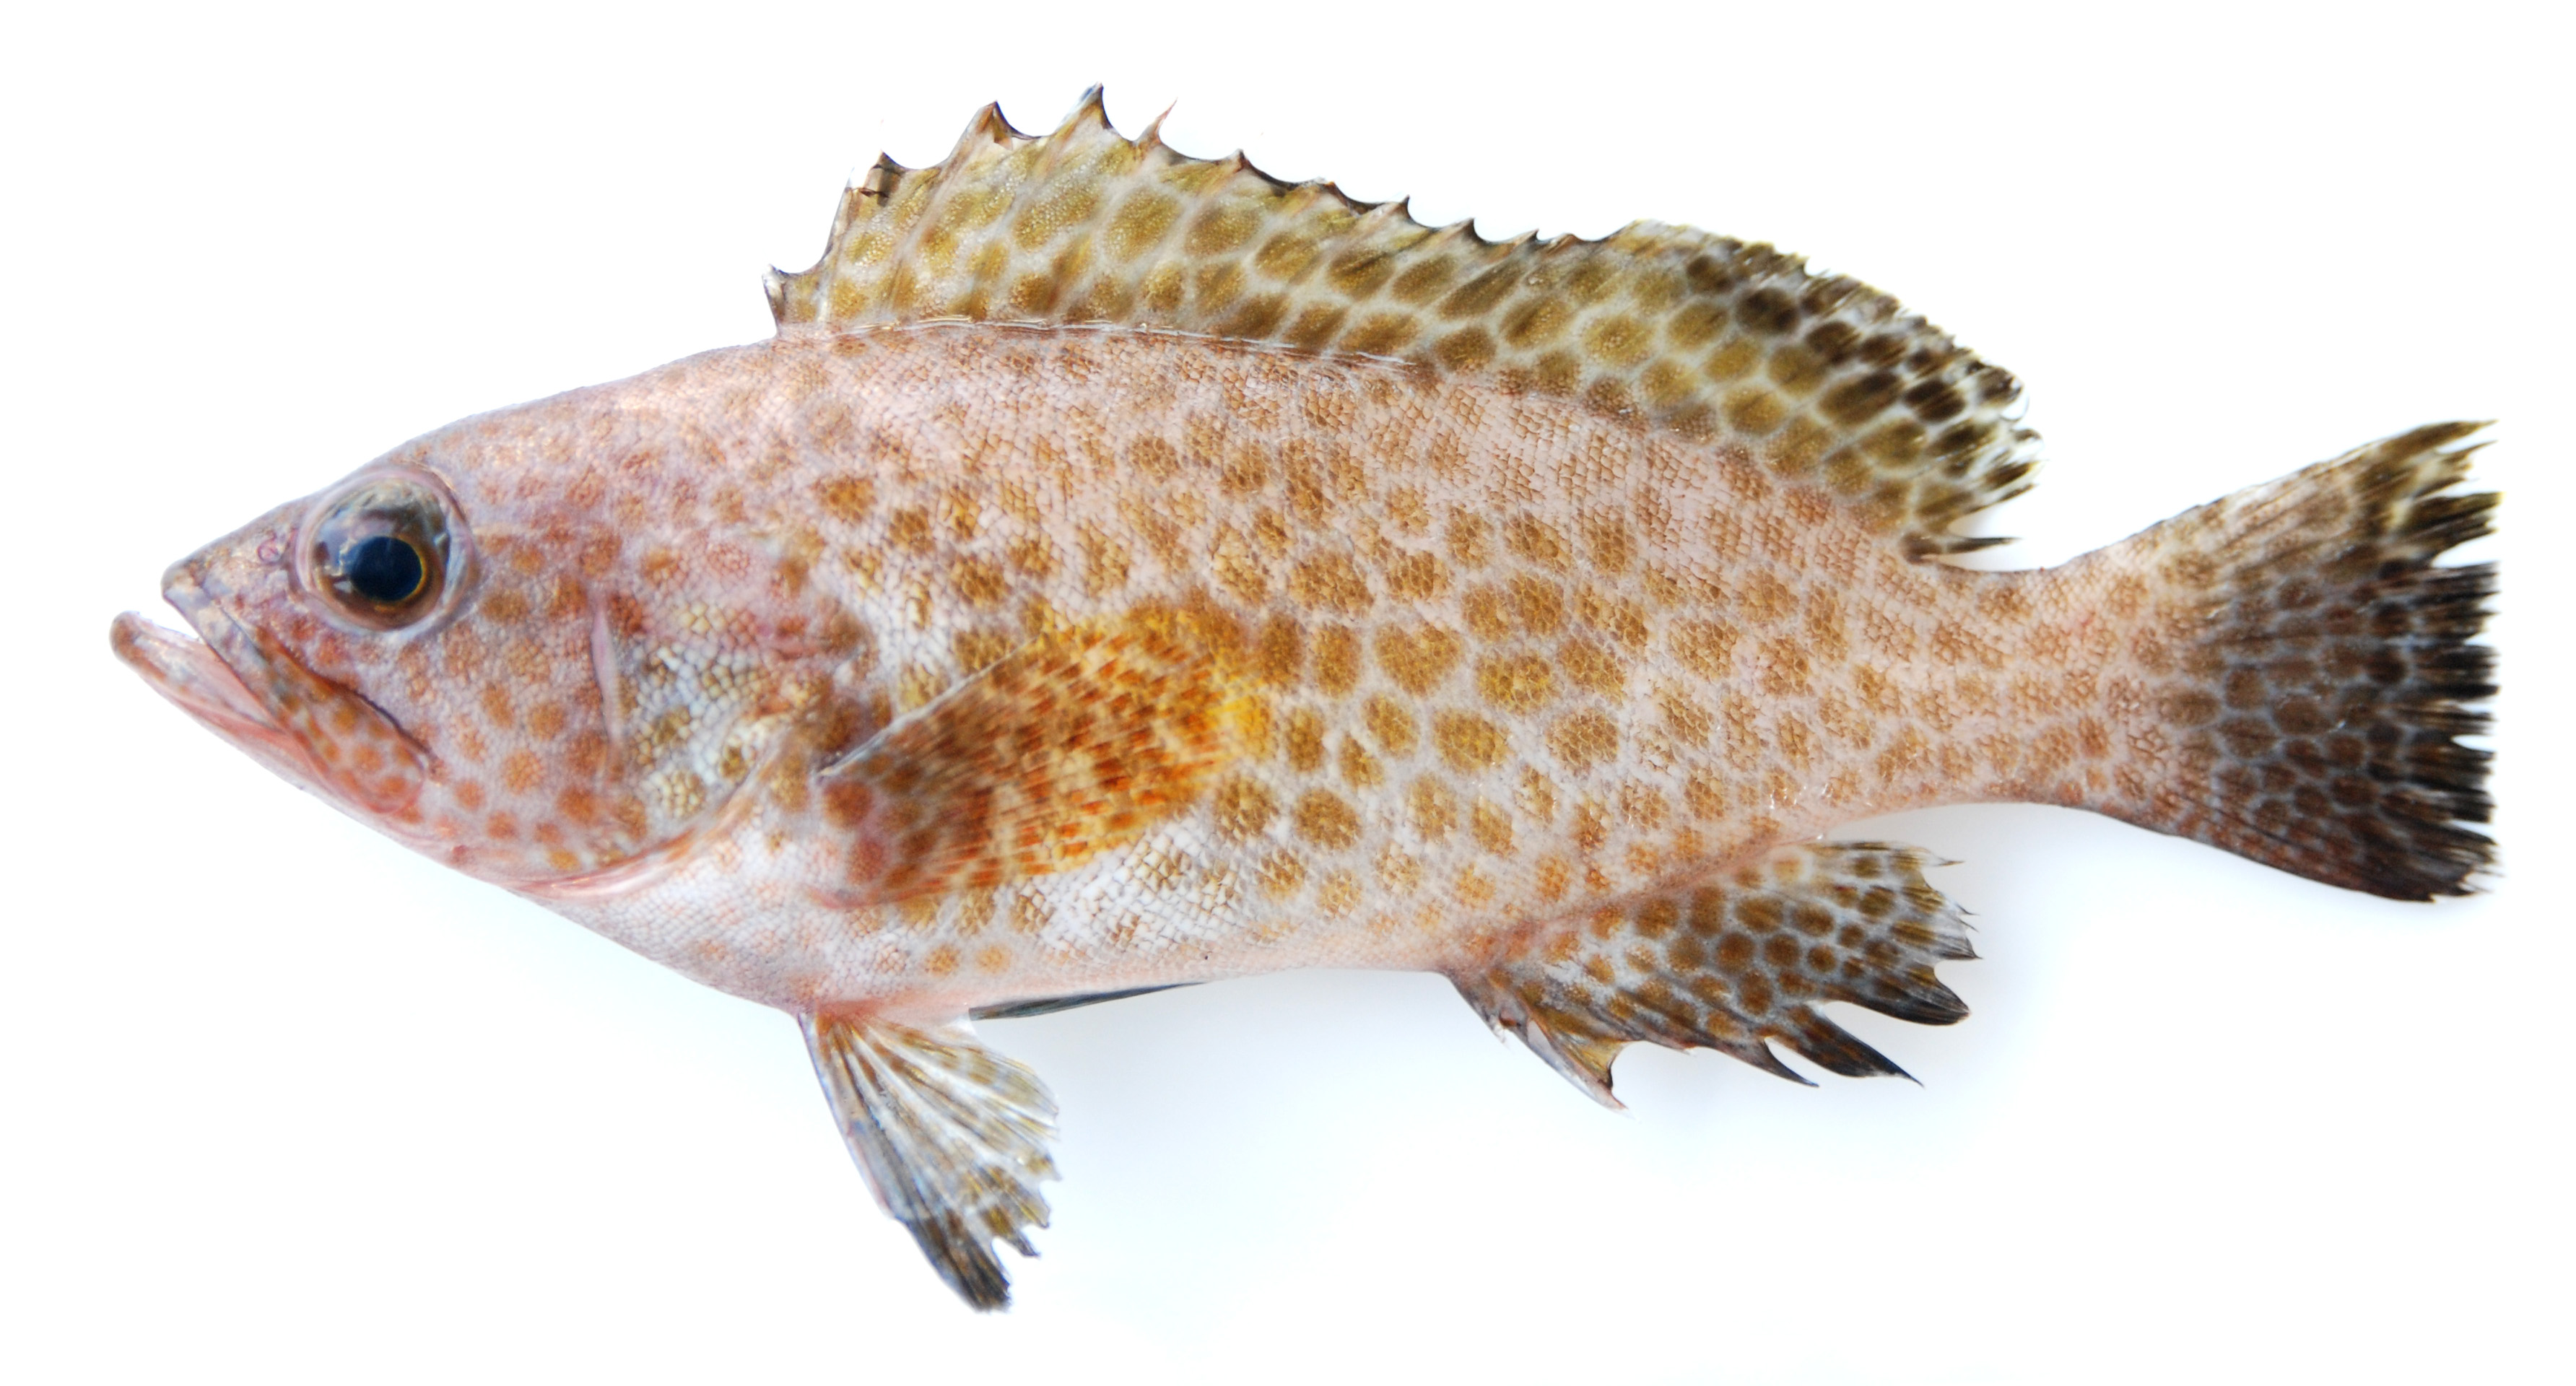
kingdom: Animalia
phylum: Chordata
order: Perciformes
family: Serranidae
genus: Epinephelus
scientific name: Epinephelus areolatus
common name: Areolate grouper
